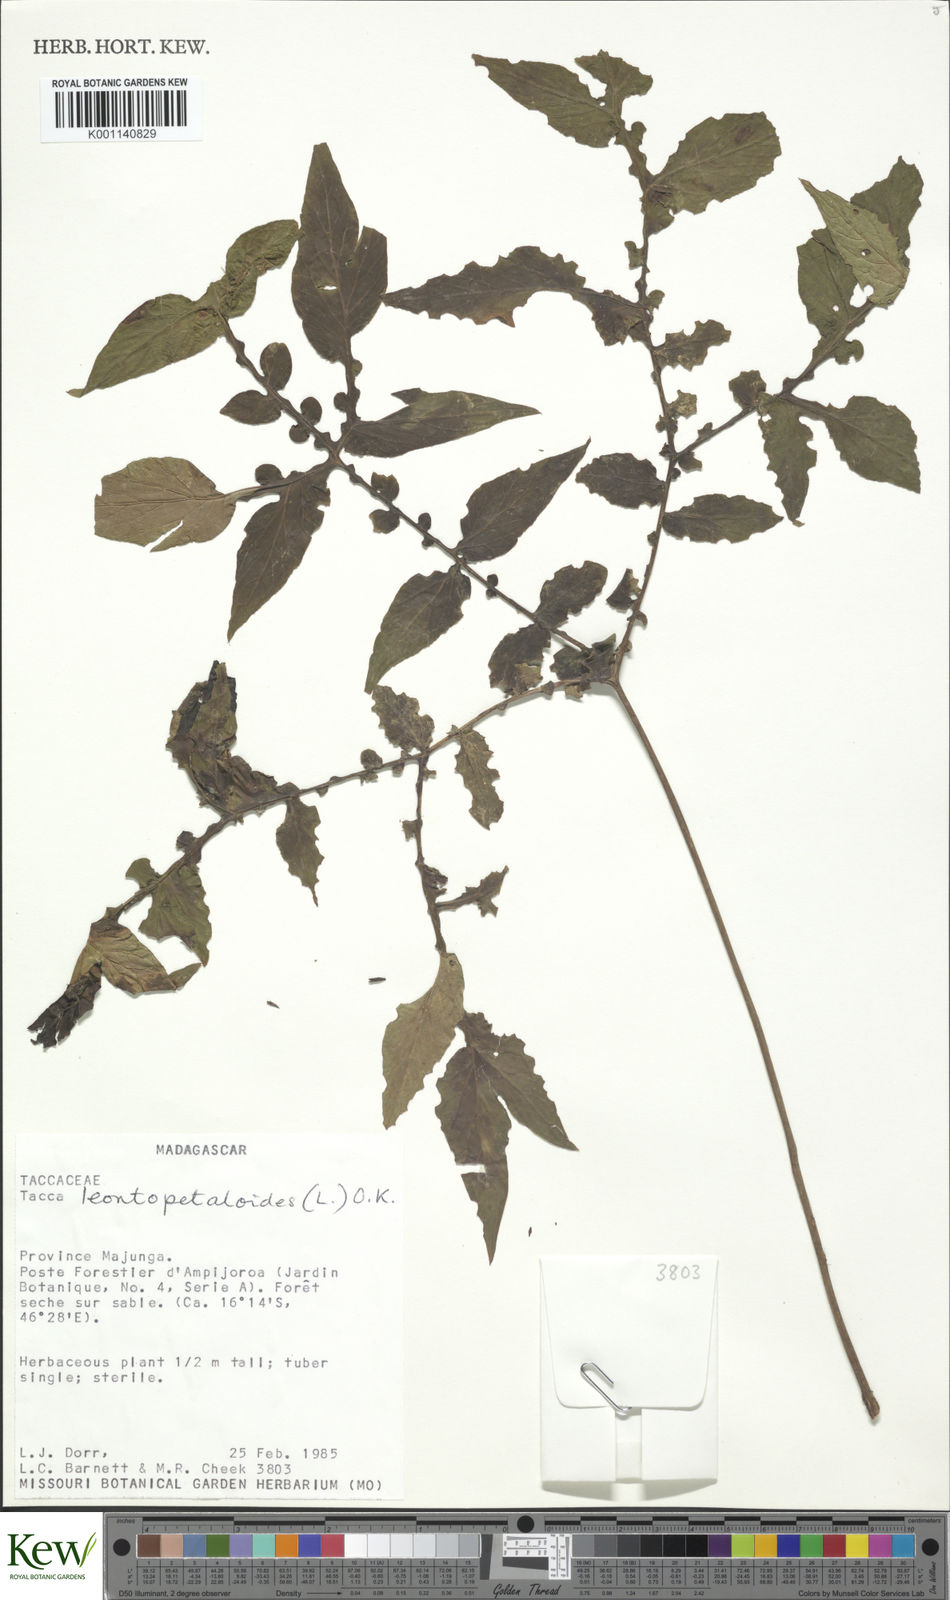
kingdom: Plantae
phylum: Tracheophyta
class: Liliopsida
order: Dioscoreales
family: Dioscoreaceae
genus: Tacca
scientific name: Tacca leontopetaloides
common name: Arrowroot
